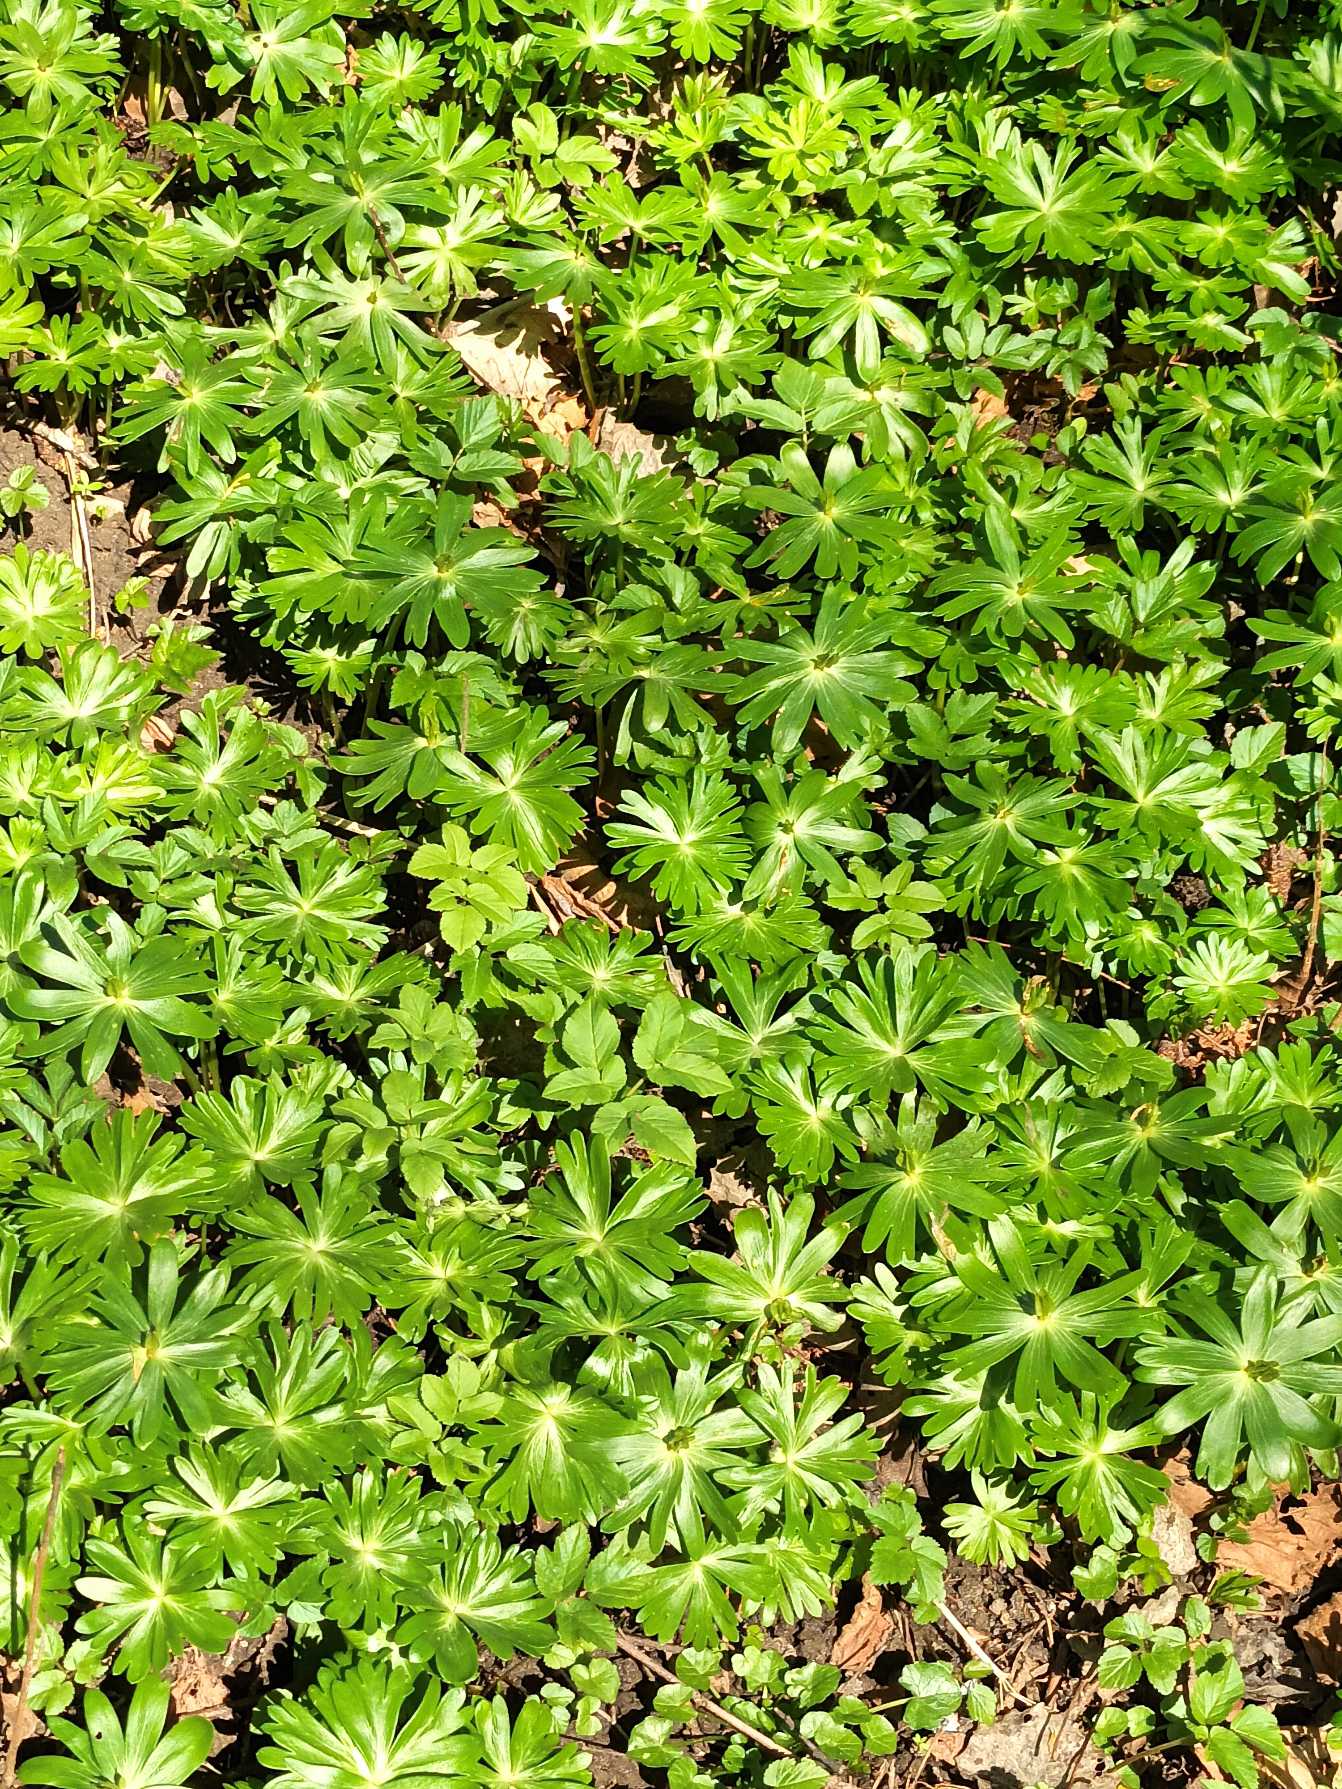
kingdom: Plantae
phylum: Tracheophyta
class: Magnoliopsida
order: Ranunculales
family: Ranunculaceae
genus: Eranthis
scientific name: Eranthis hyemalis
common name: Erantis
